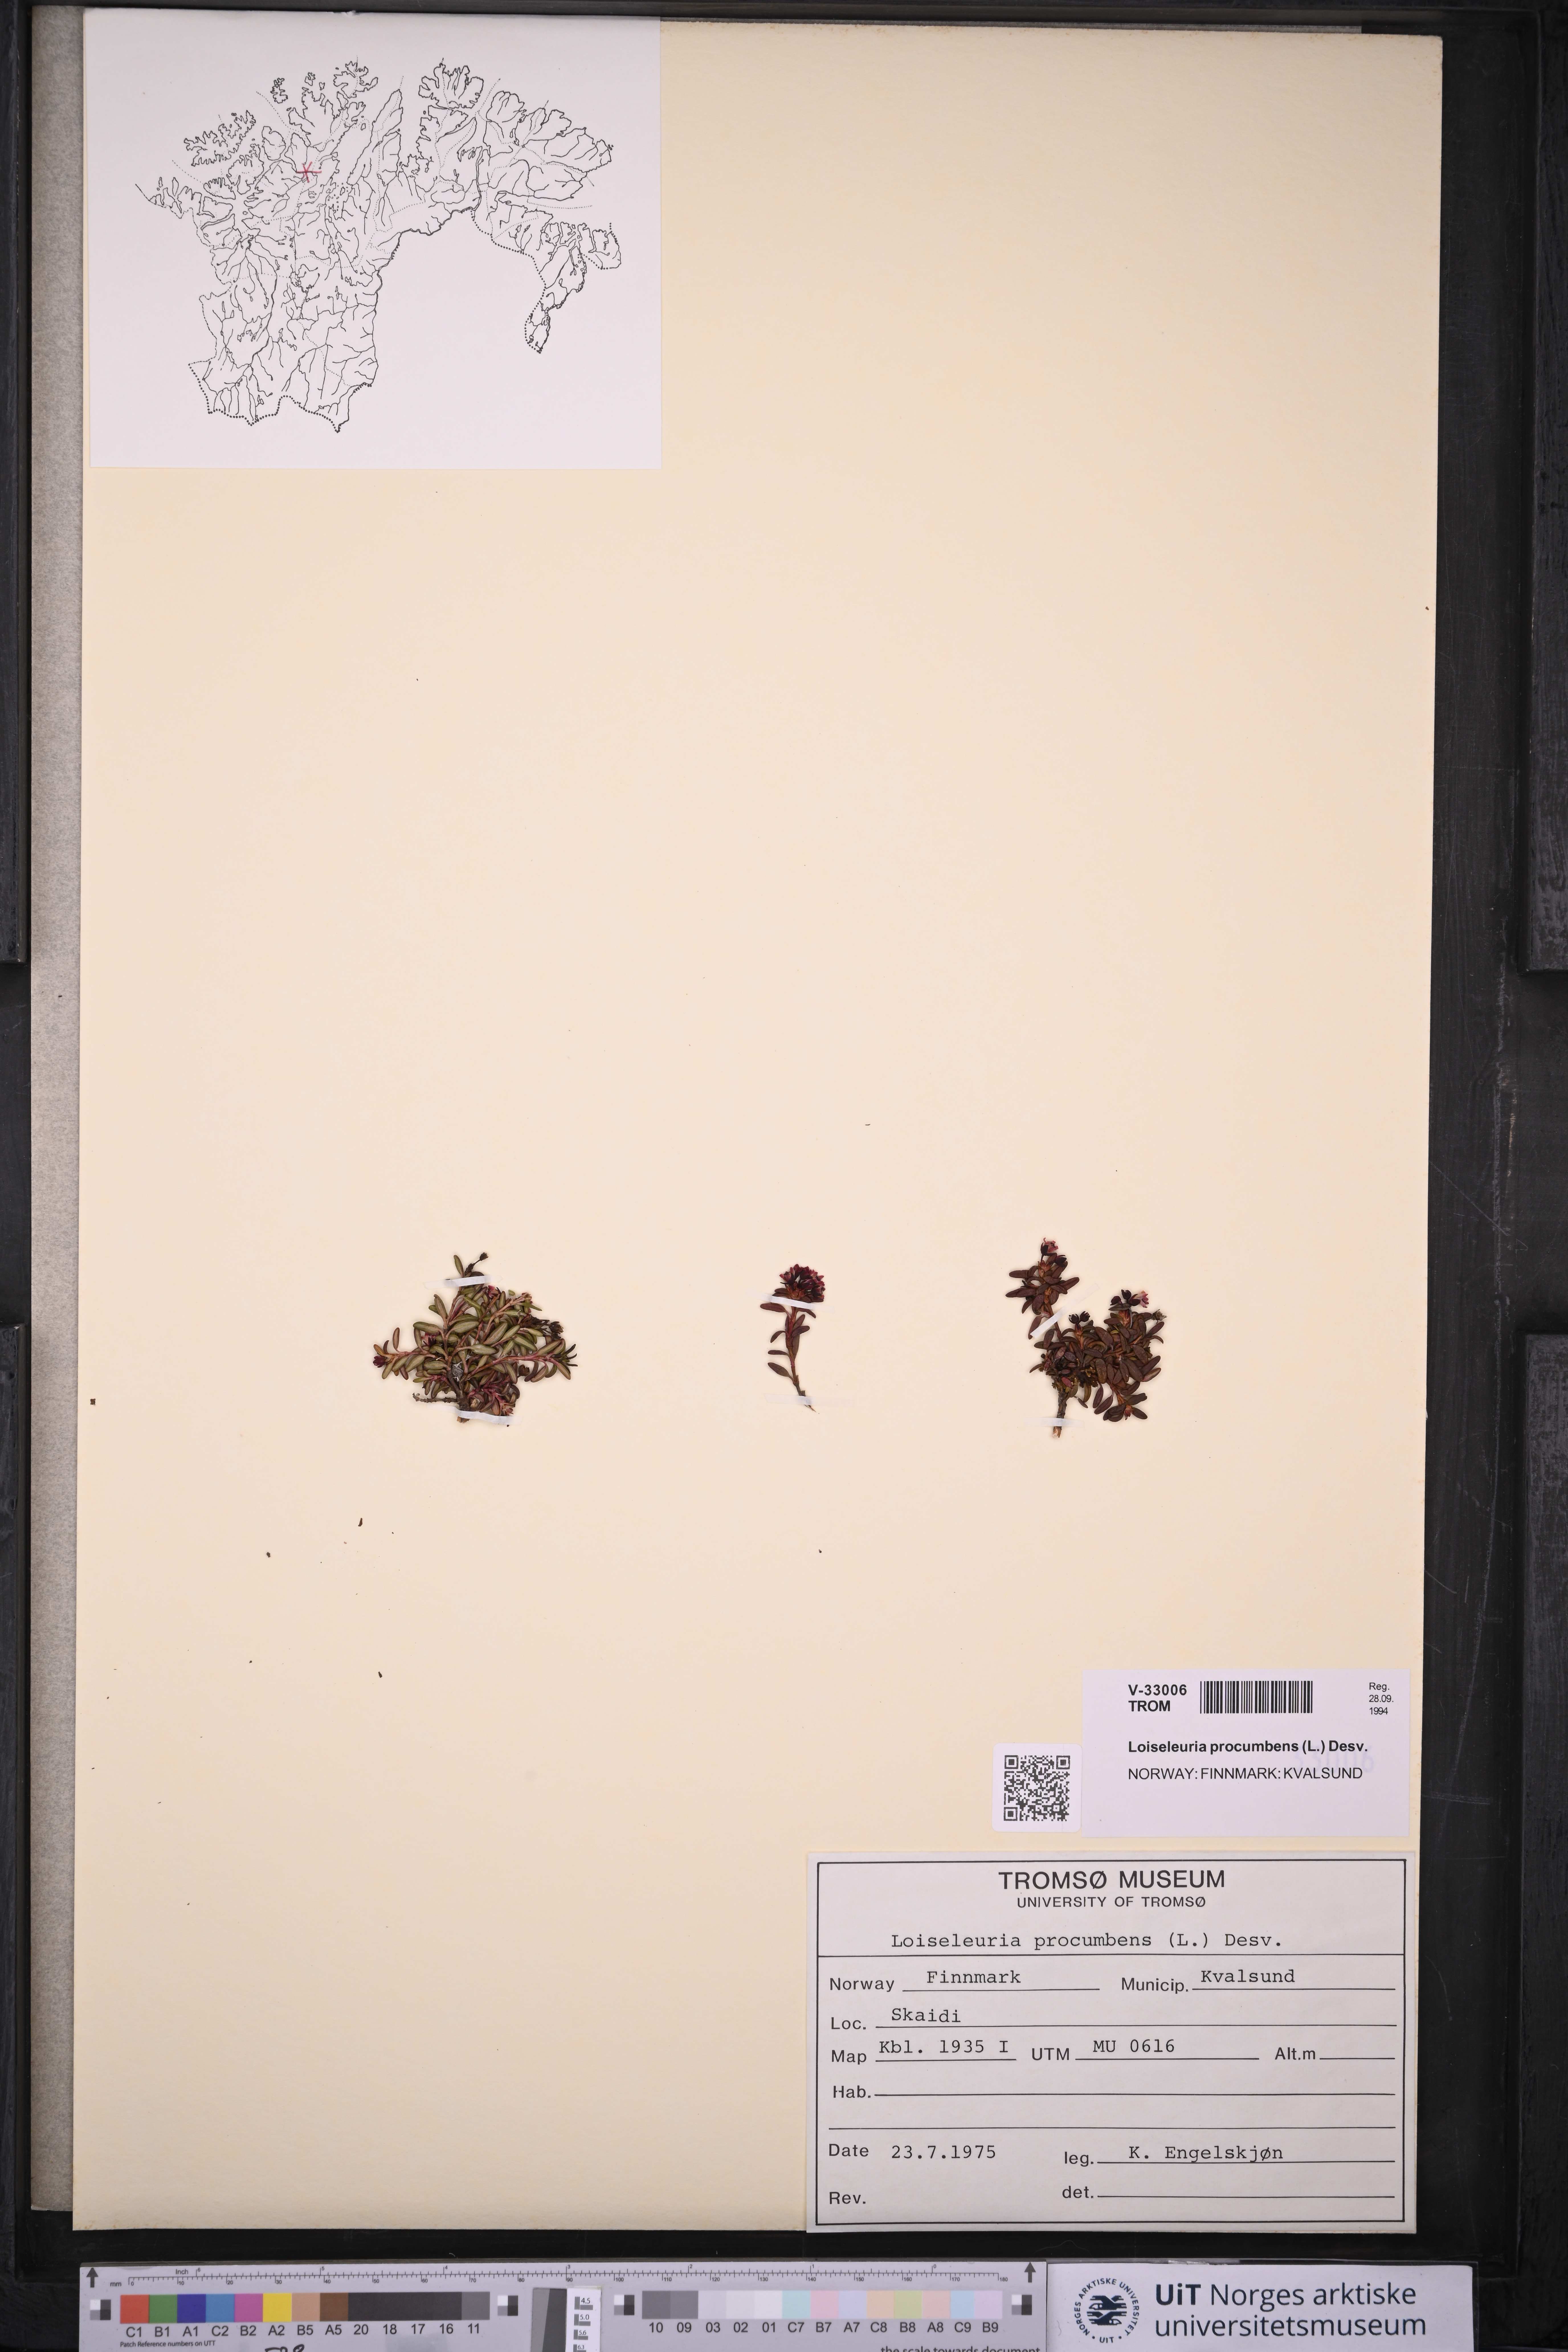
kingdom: Plantae
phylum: Tracheophyta
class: Magnoliopsida
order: Ericales
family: Ericaceae
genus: Kalmia
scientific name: Kalmia procumbens
